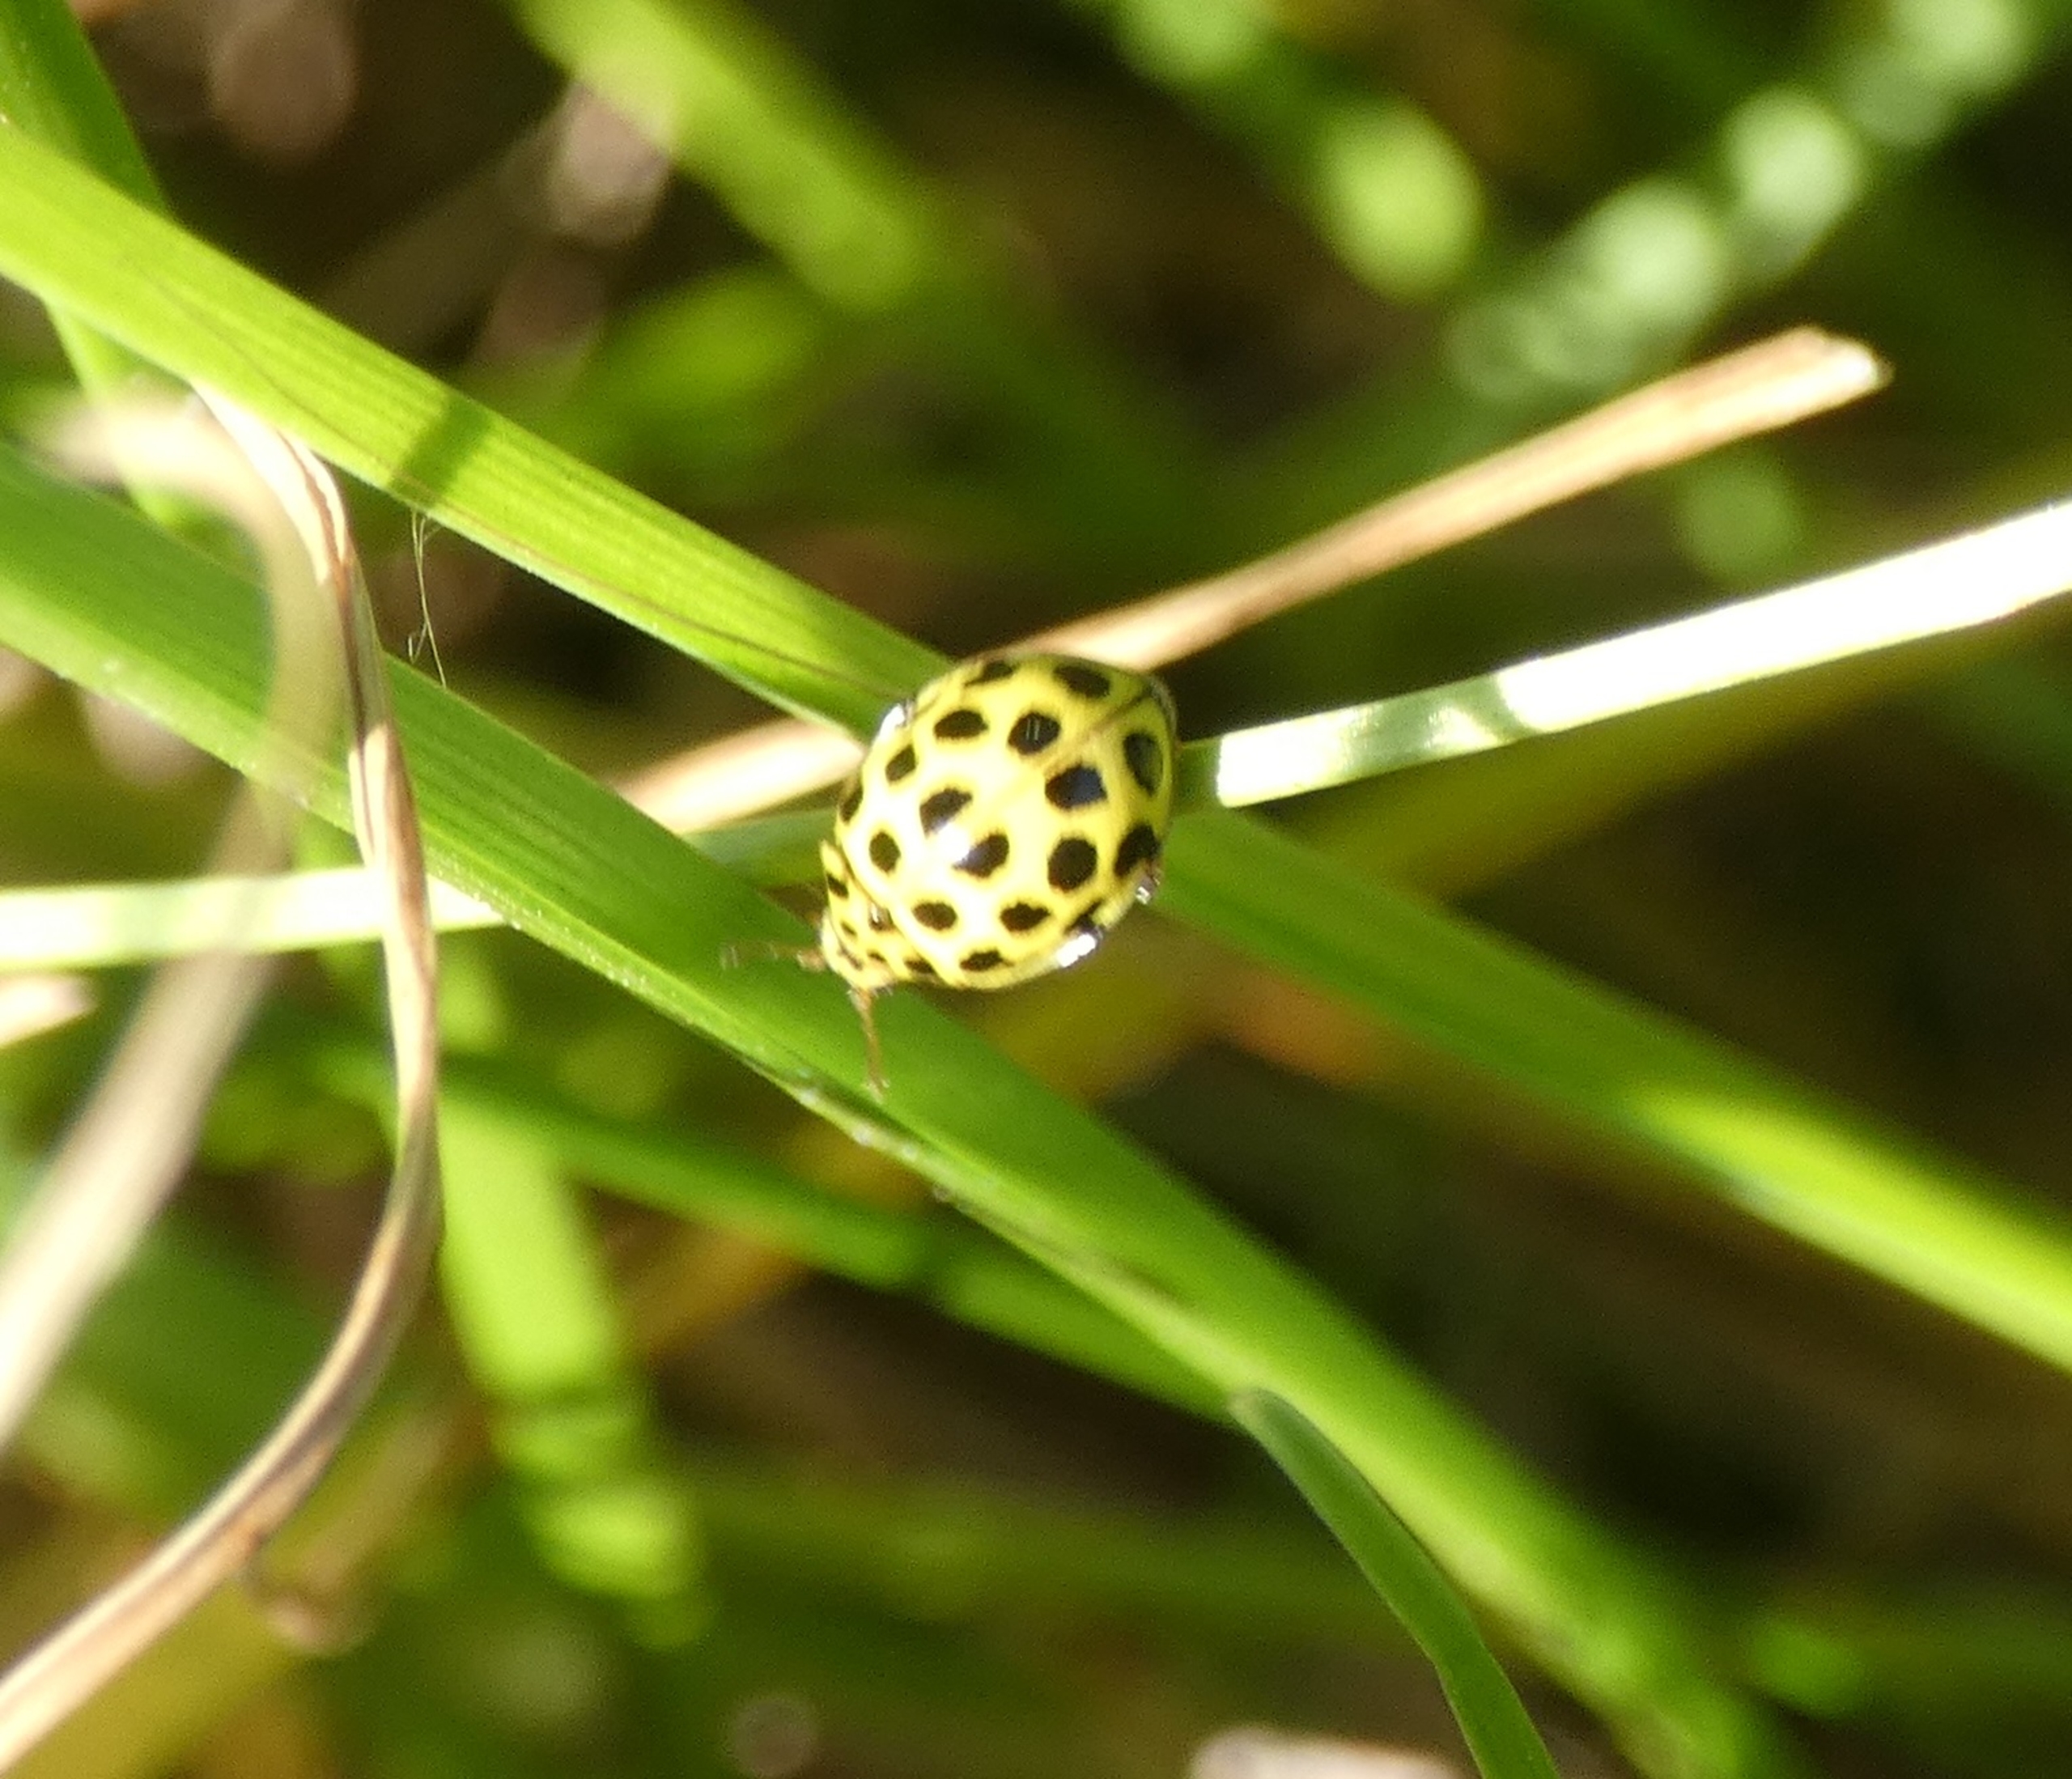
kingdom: Animalia
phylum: Arthropoda
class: Insecta
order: Coleoptera
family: Coccinellidae
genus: Psyllobora
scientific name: Psyllobora vigintiduopunctata
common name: Toogtyveplettet mariehøne
